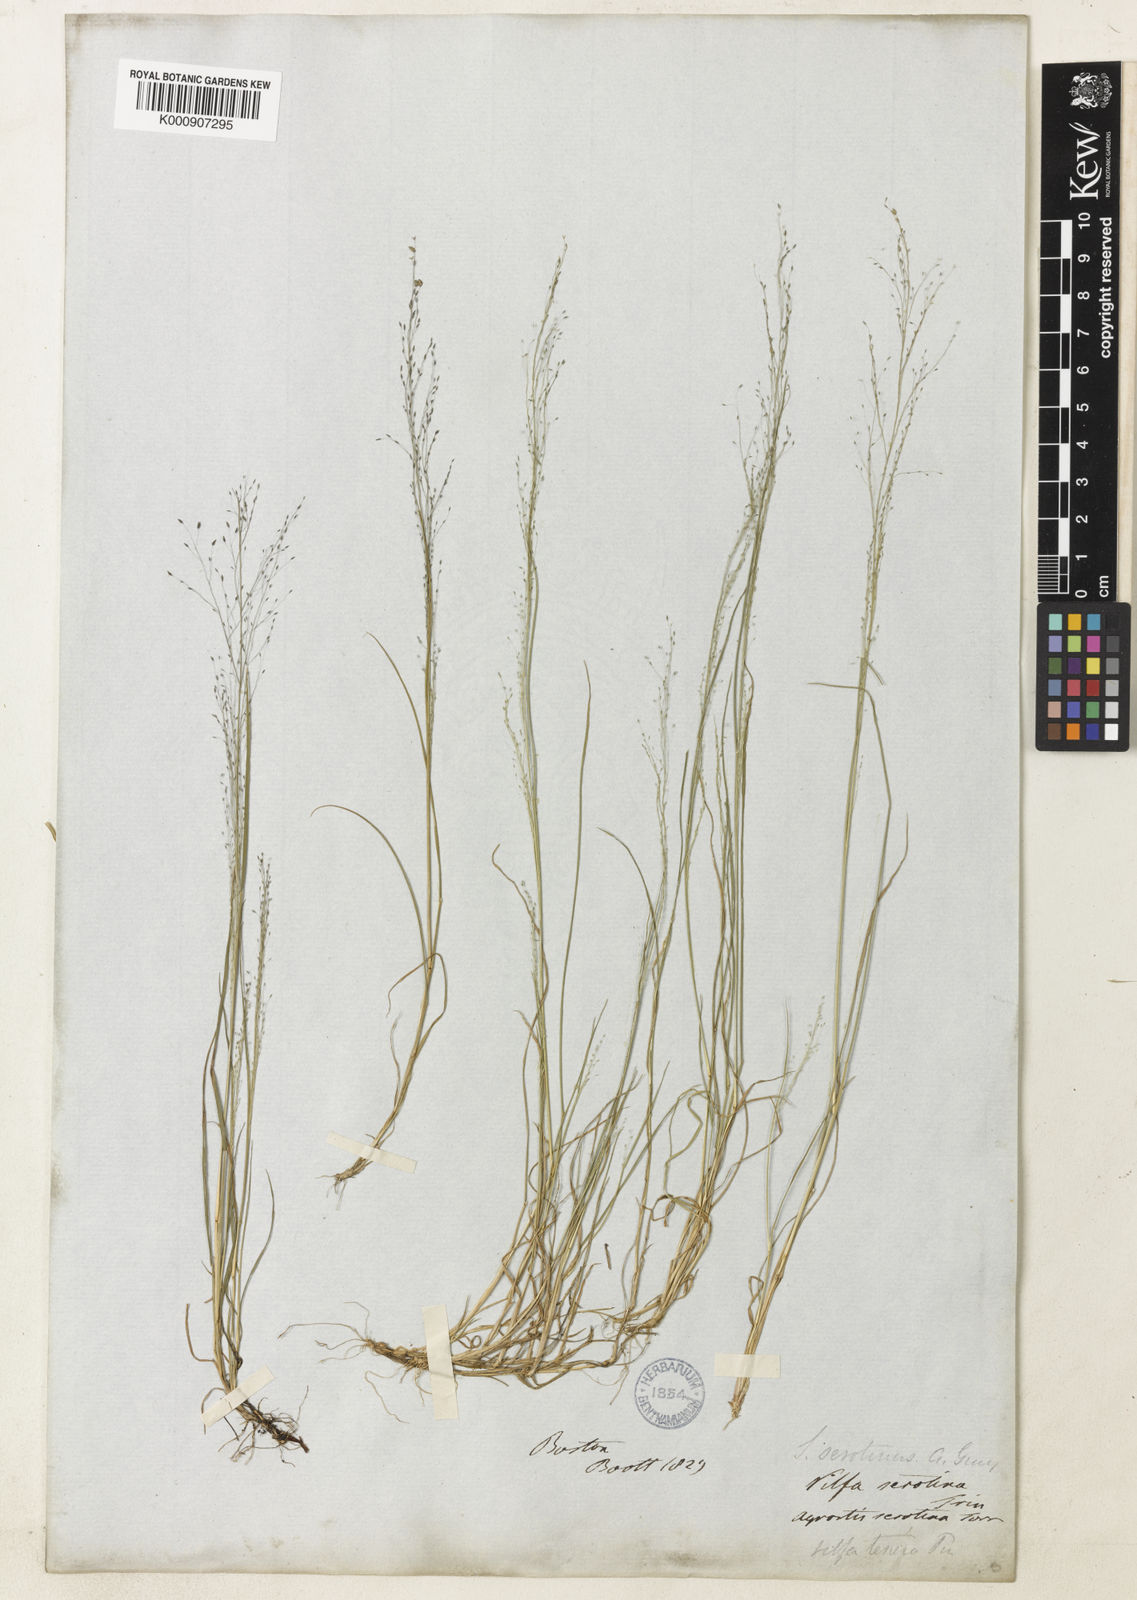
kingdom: Plantae
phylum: Tracheophyta
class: Liliopsida
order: Poales
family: Poaceae
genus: Muhlenbergia
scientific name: Muhlenbergia uniflora
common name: Bog muhly
